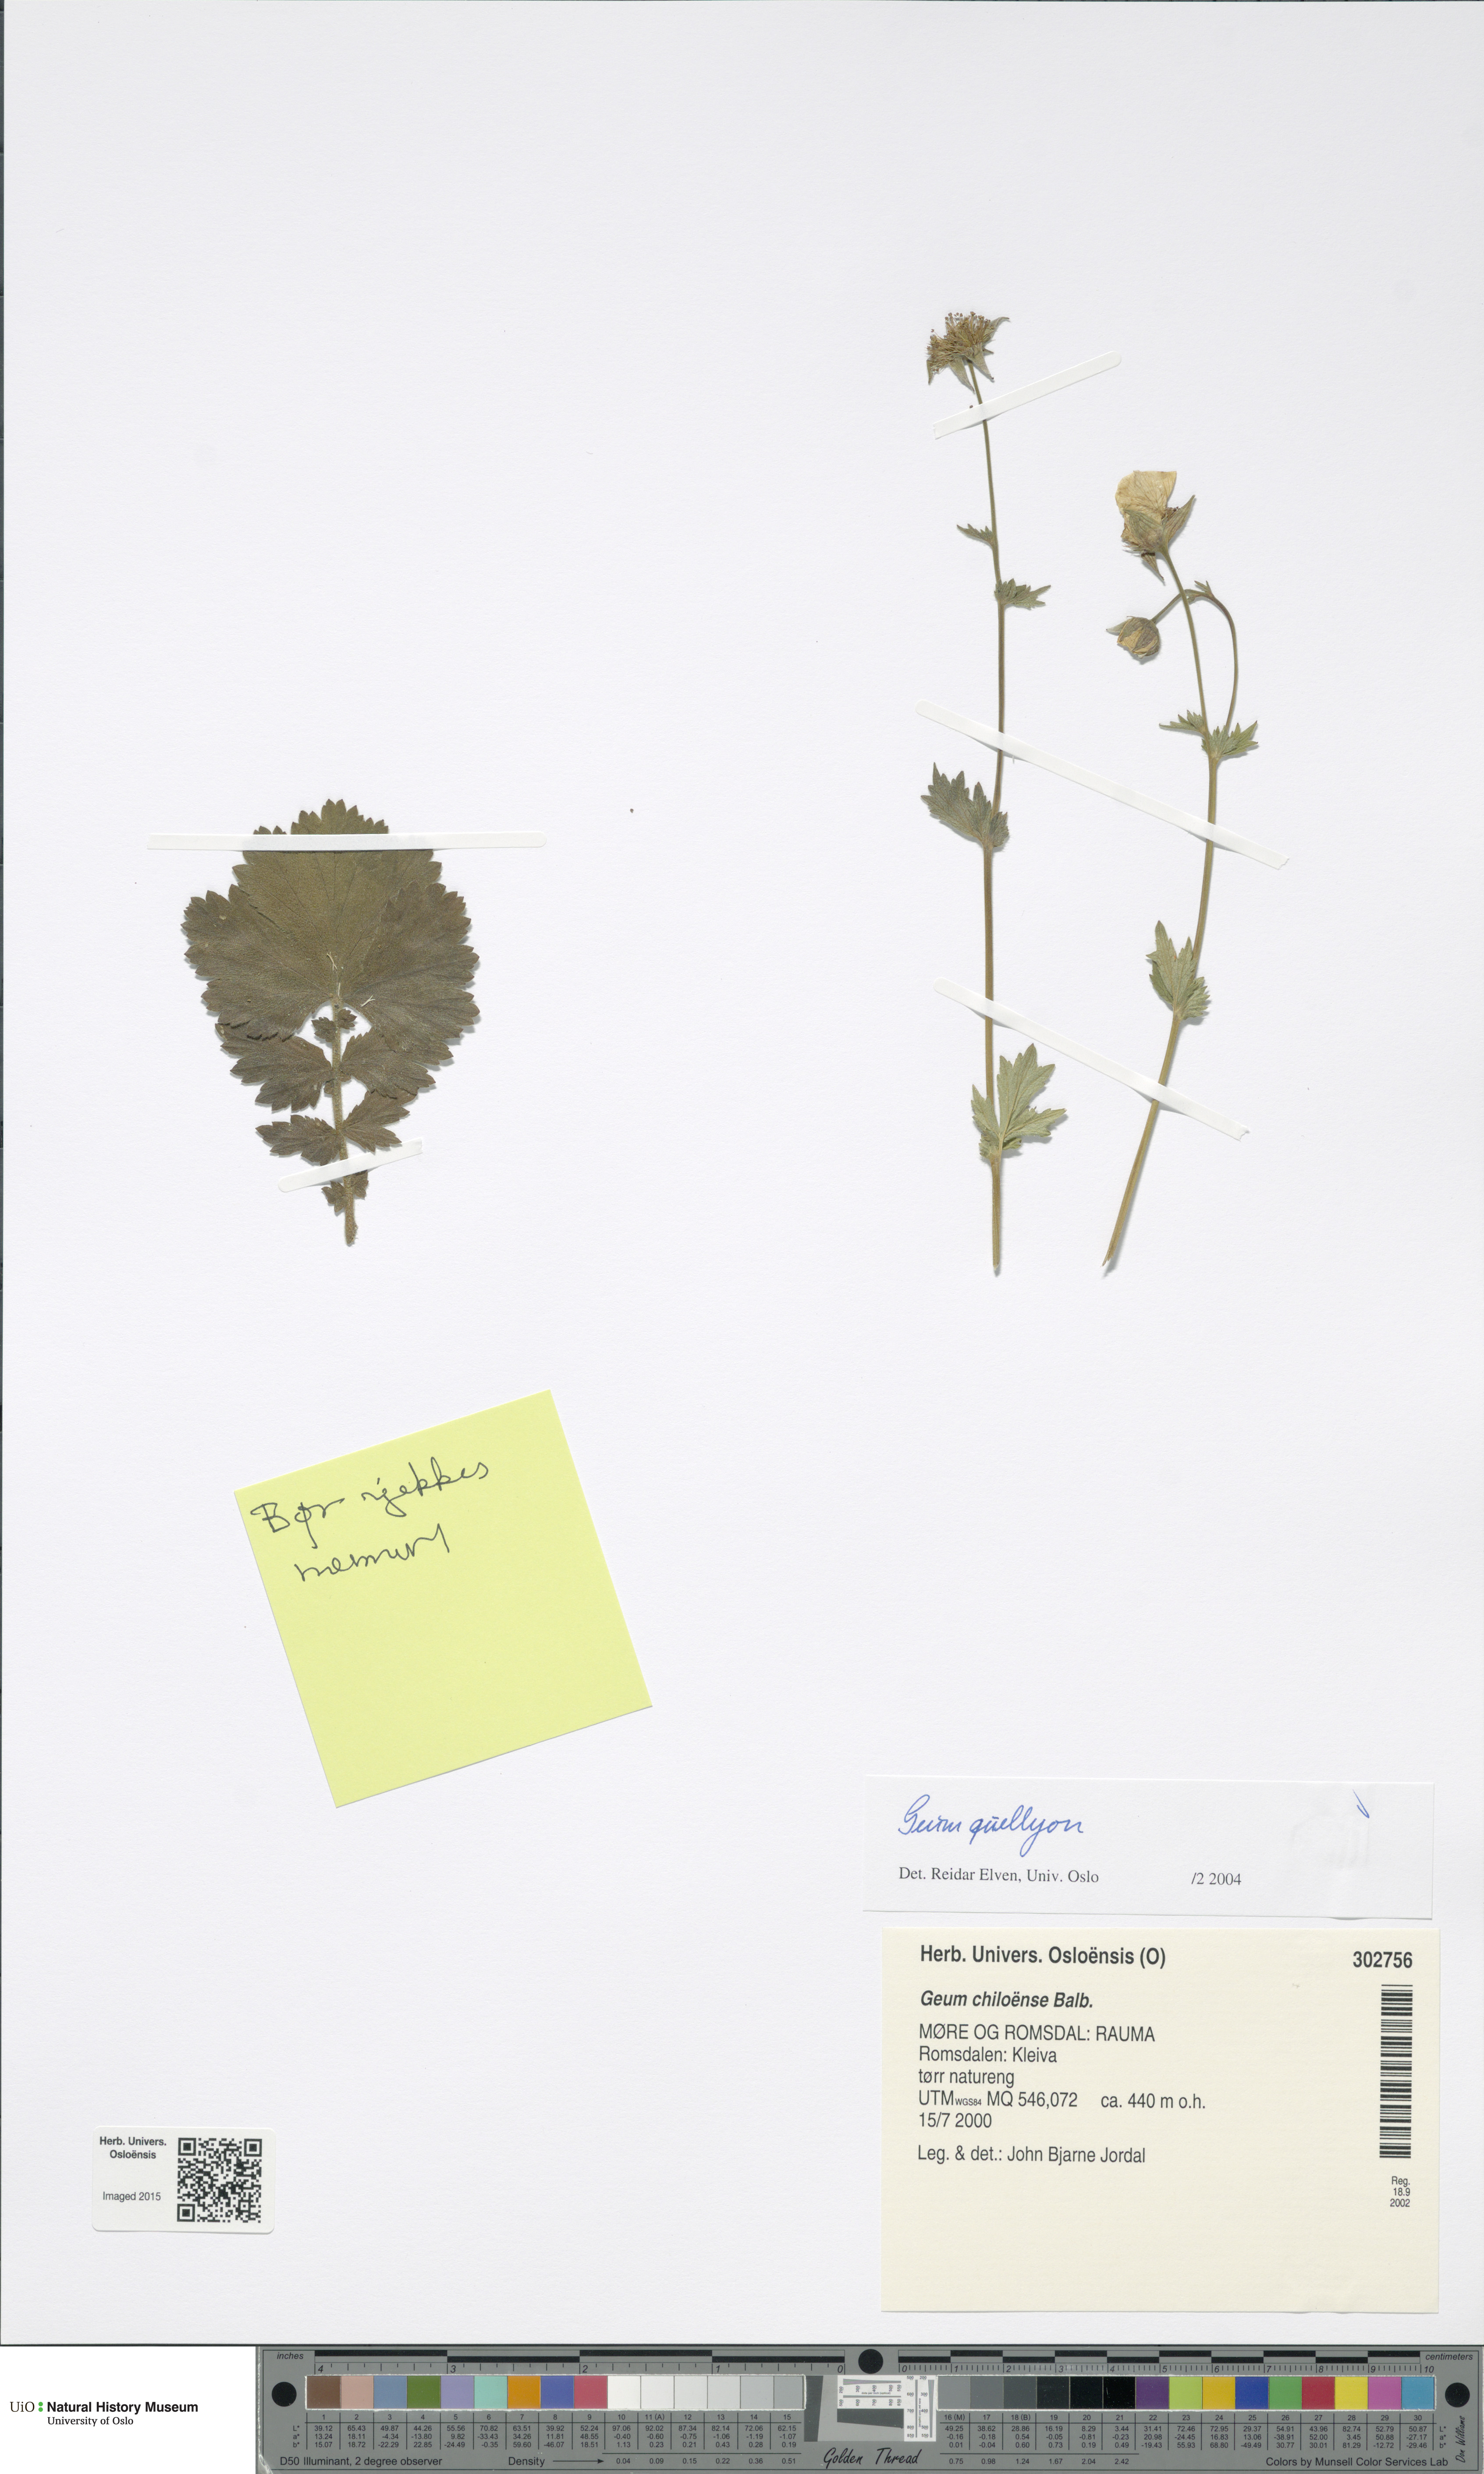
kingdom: Plantae
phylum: Tracheophyta
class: Magnoliopsida
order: Rosales
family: Rosaceae
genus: Geum
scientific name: Geum quellyon
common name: Scarlet avens
